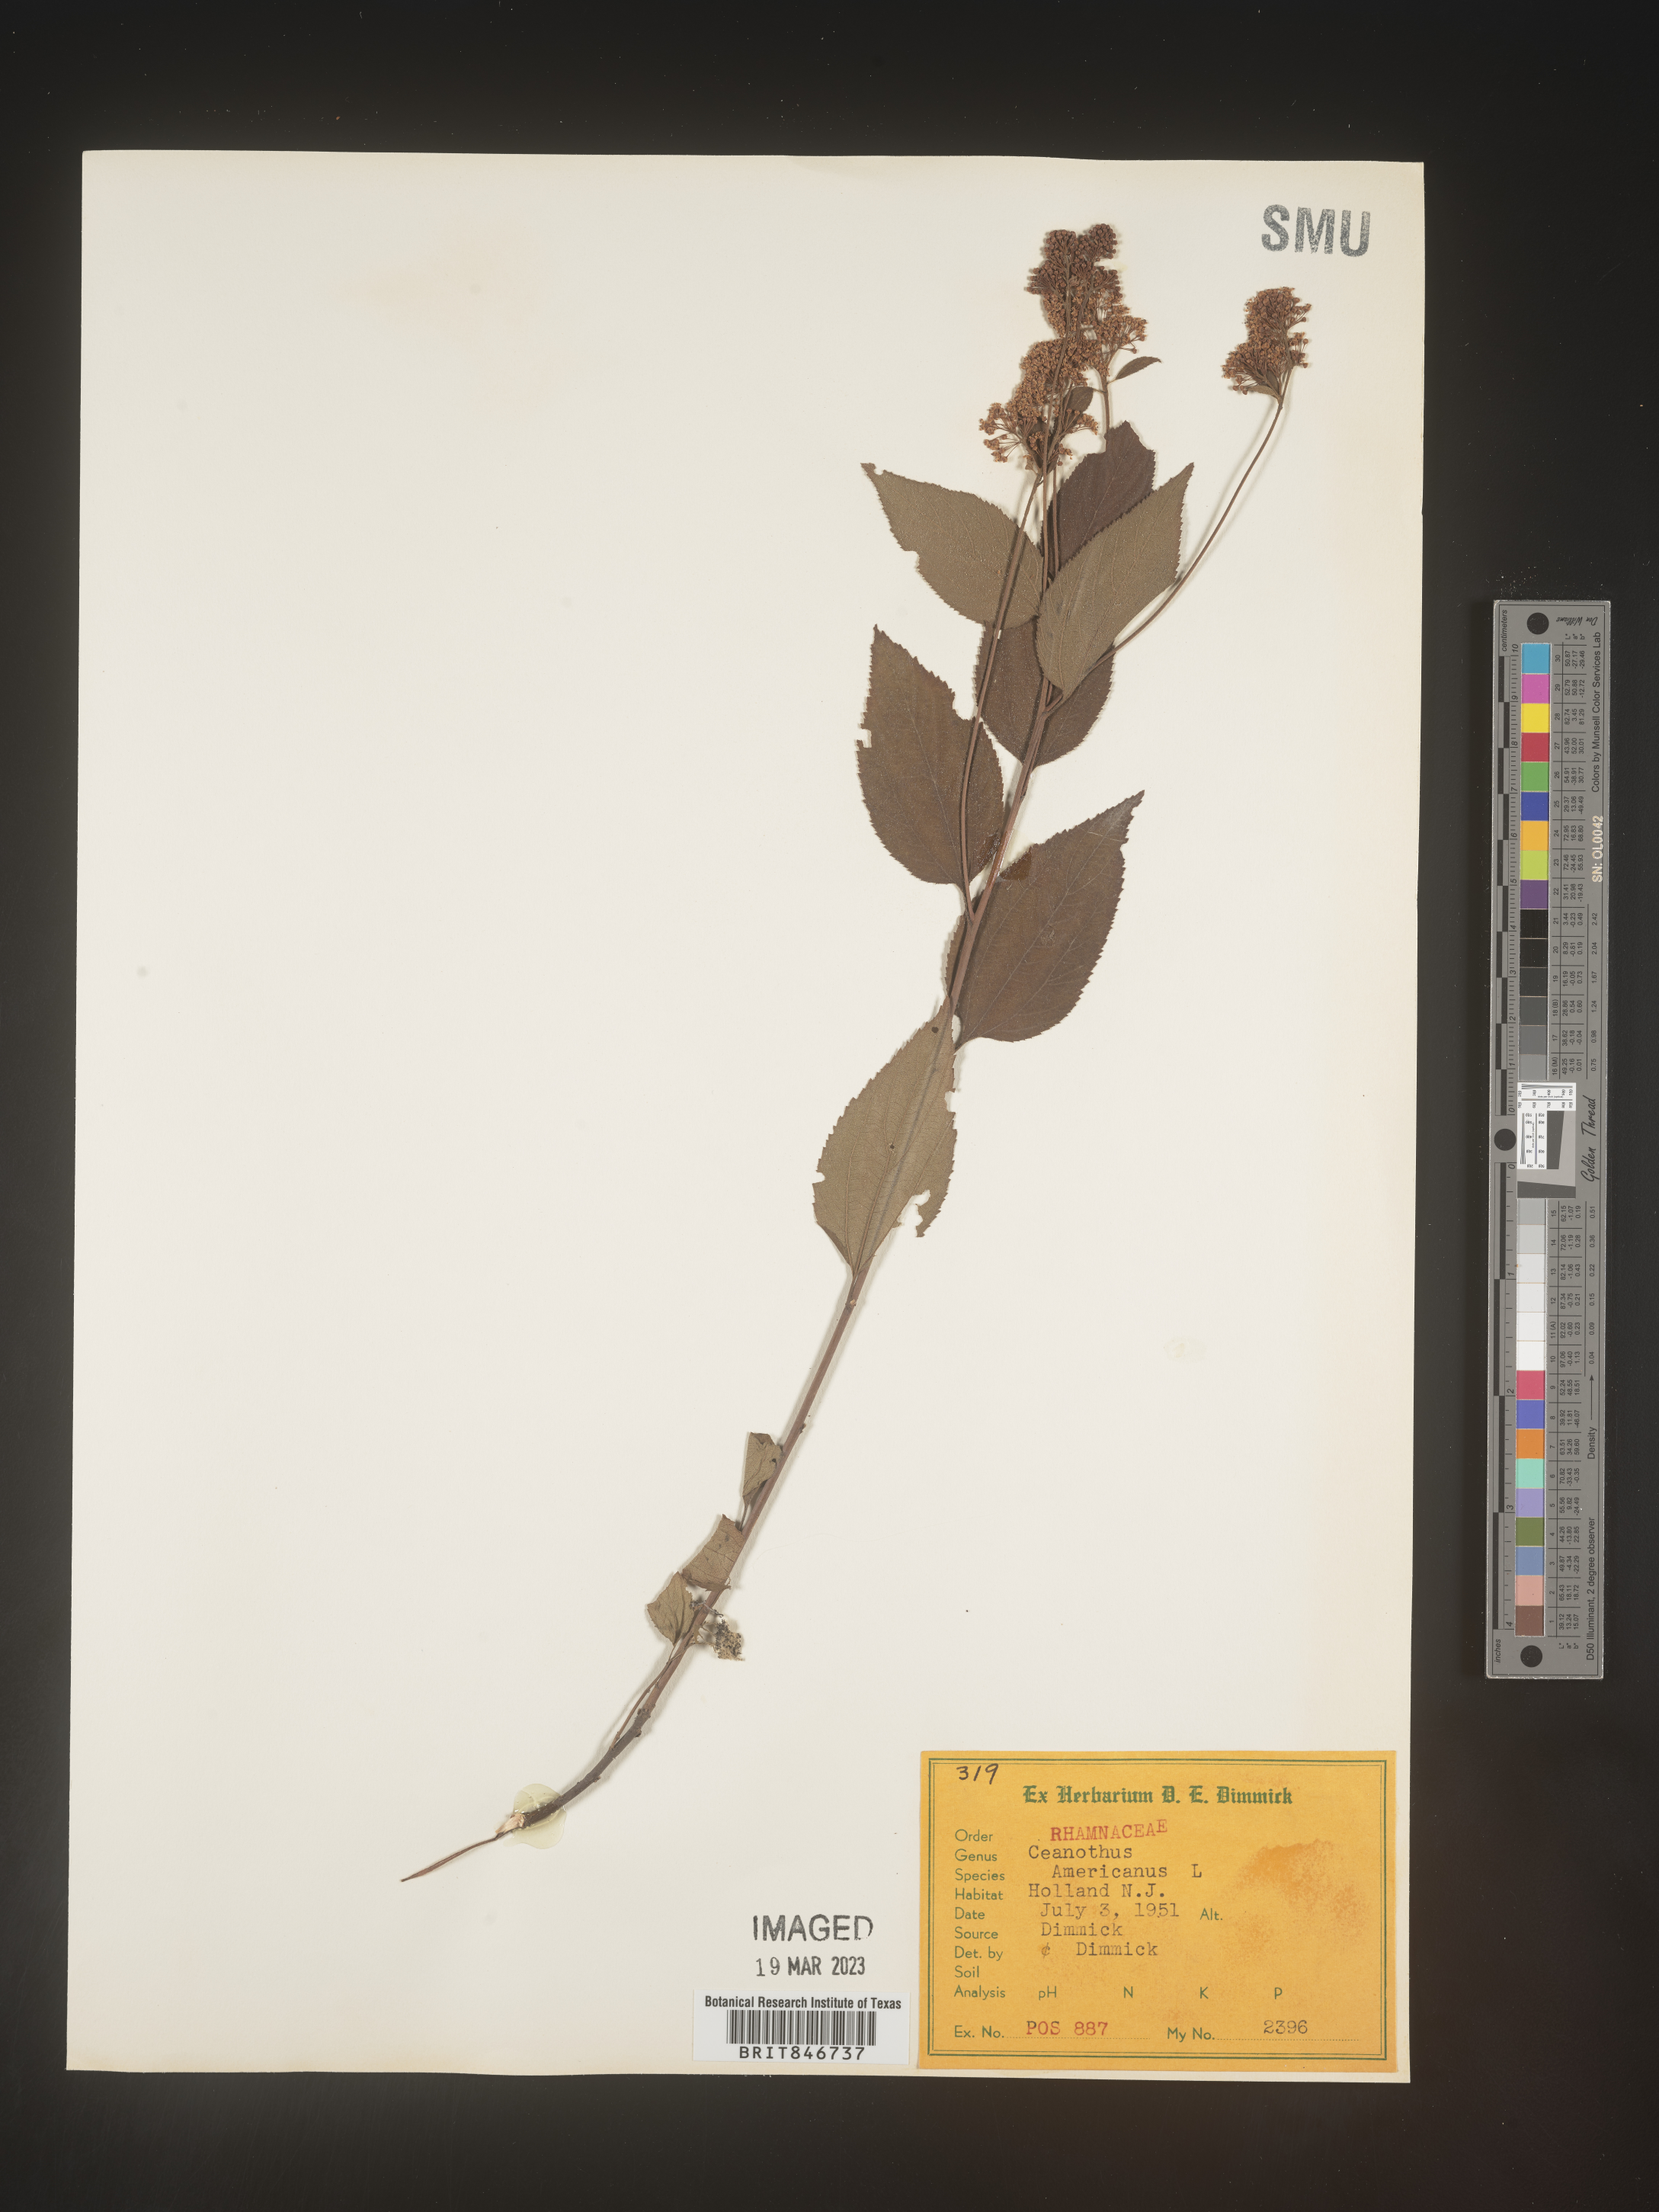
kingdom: Plantae
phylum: Tracheophyta
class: Magnoliopsida
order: Rosales
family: Rhamnaceae
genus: Ceanothus
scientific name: Ceanothus americanus
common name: Redroot
